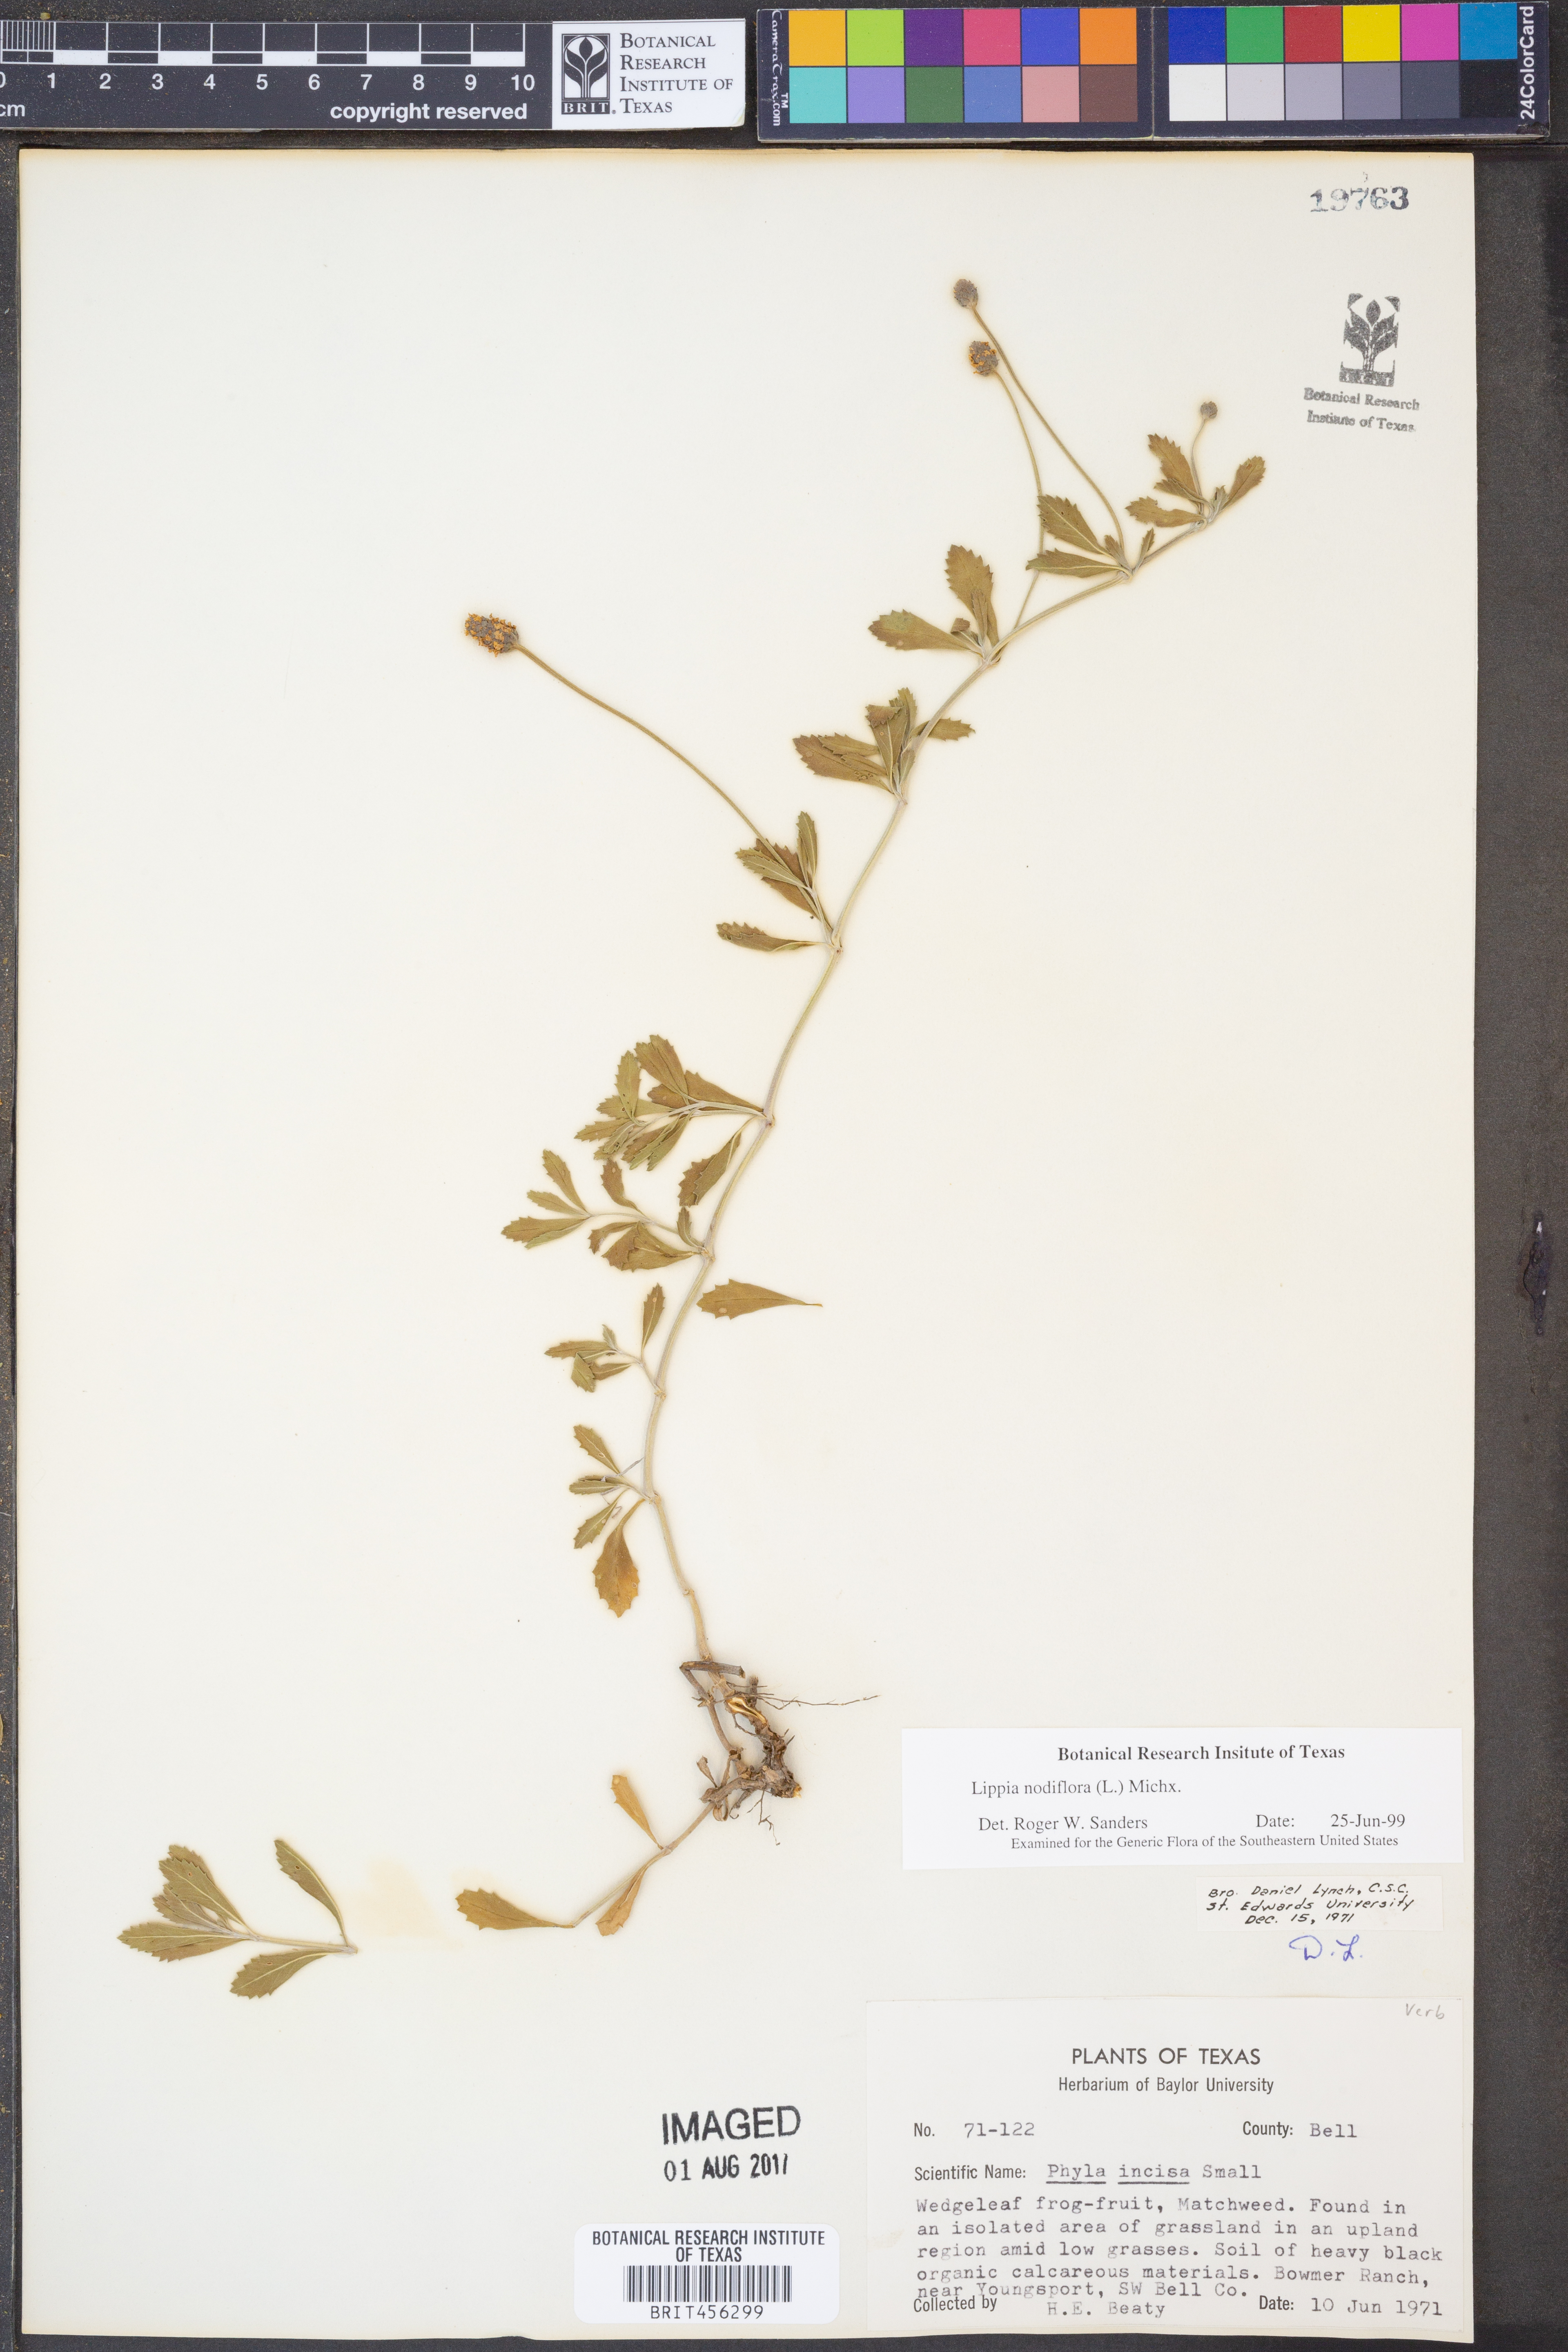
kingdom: Plantae
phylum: Tracheophyta
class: Magnoliopsida
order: Lamiales
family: Verbenaceae
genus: Phyla
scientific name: Phyla nodiflora
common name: Frogfruit
